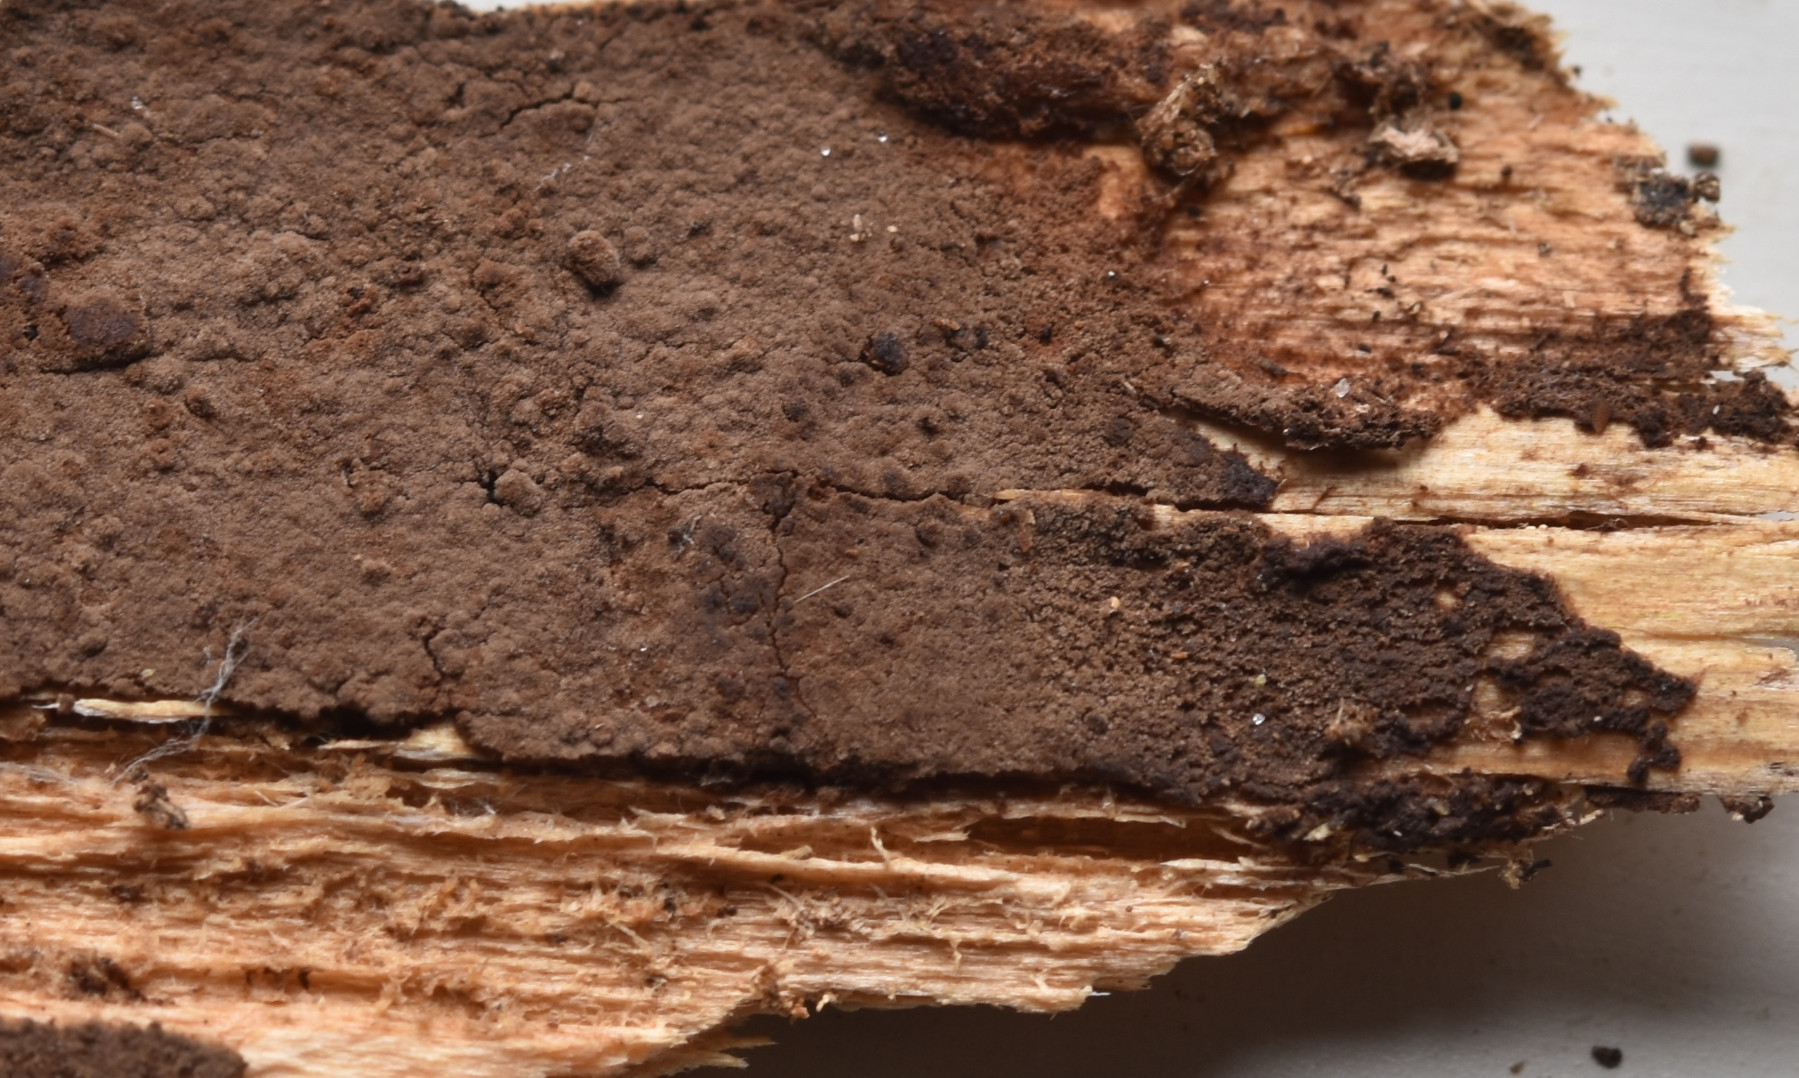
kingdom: Fungi
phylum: Basidiomycota
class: Agaricomycetes
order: Thelephorales
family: Thelephoraceae
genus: Tomentella
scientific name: Tomentella
